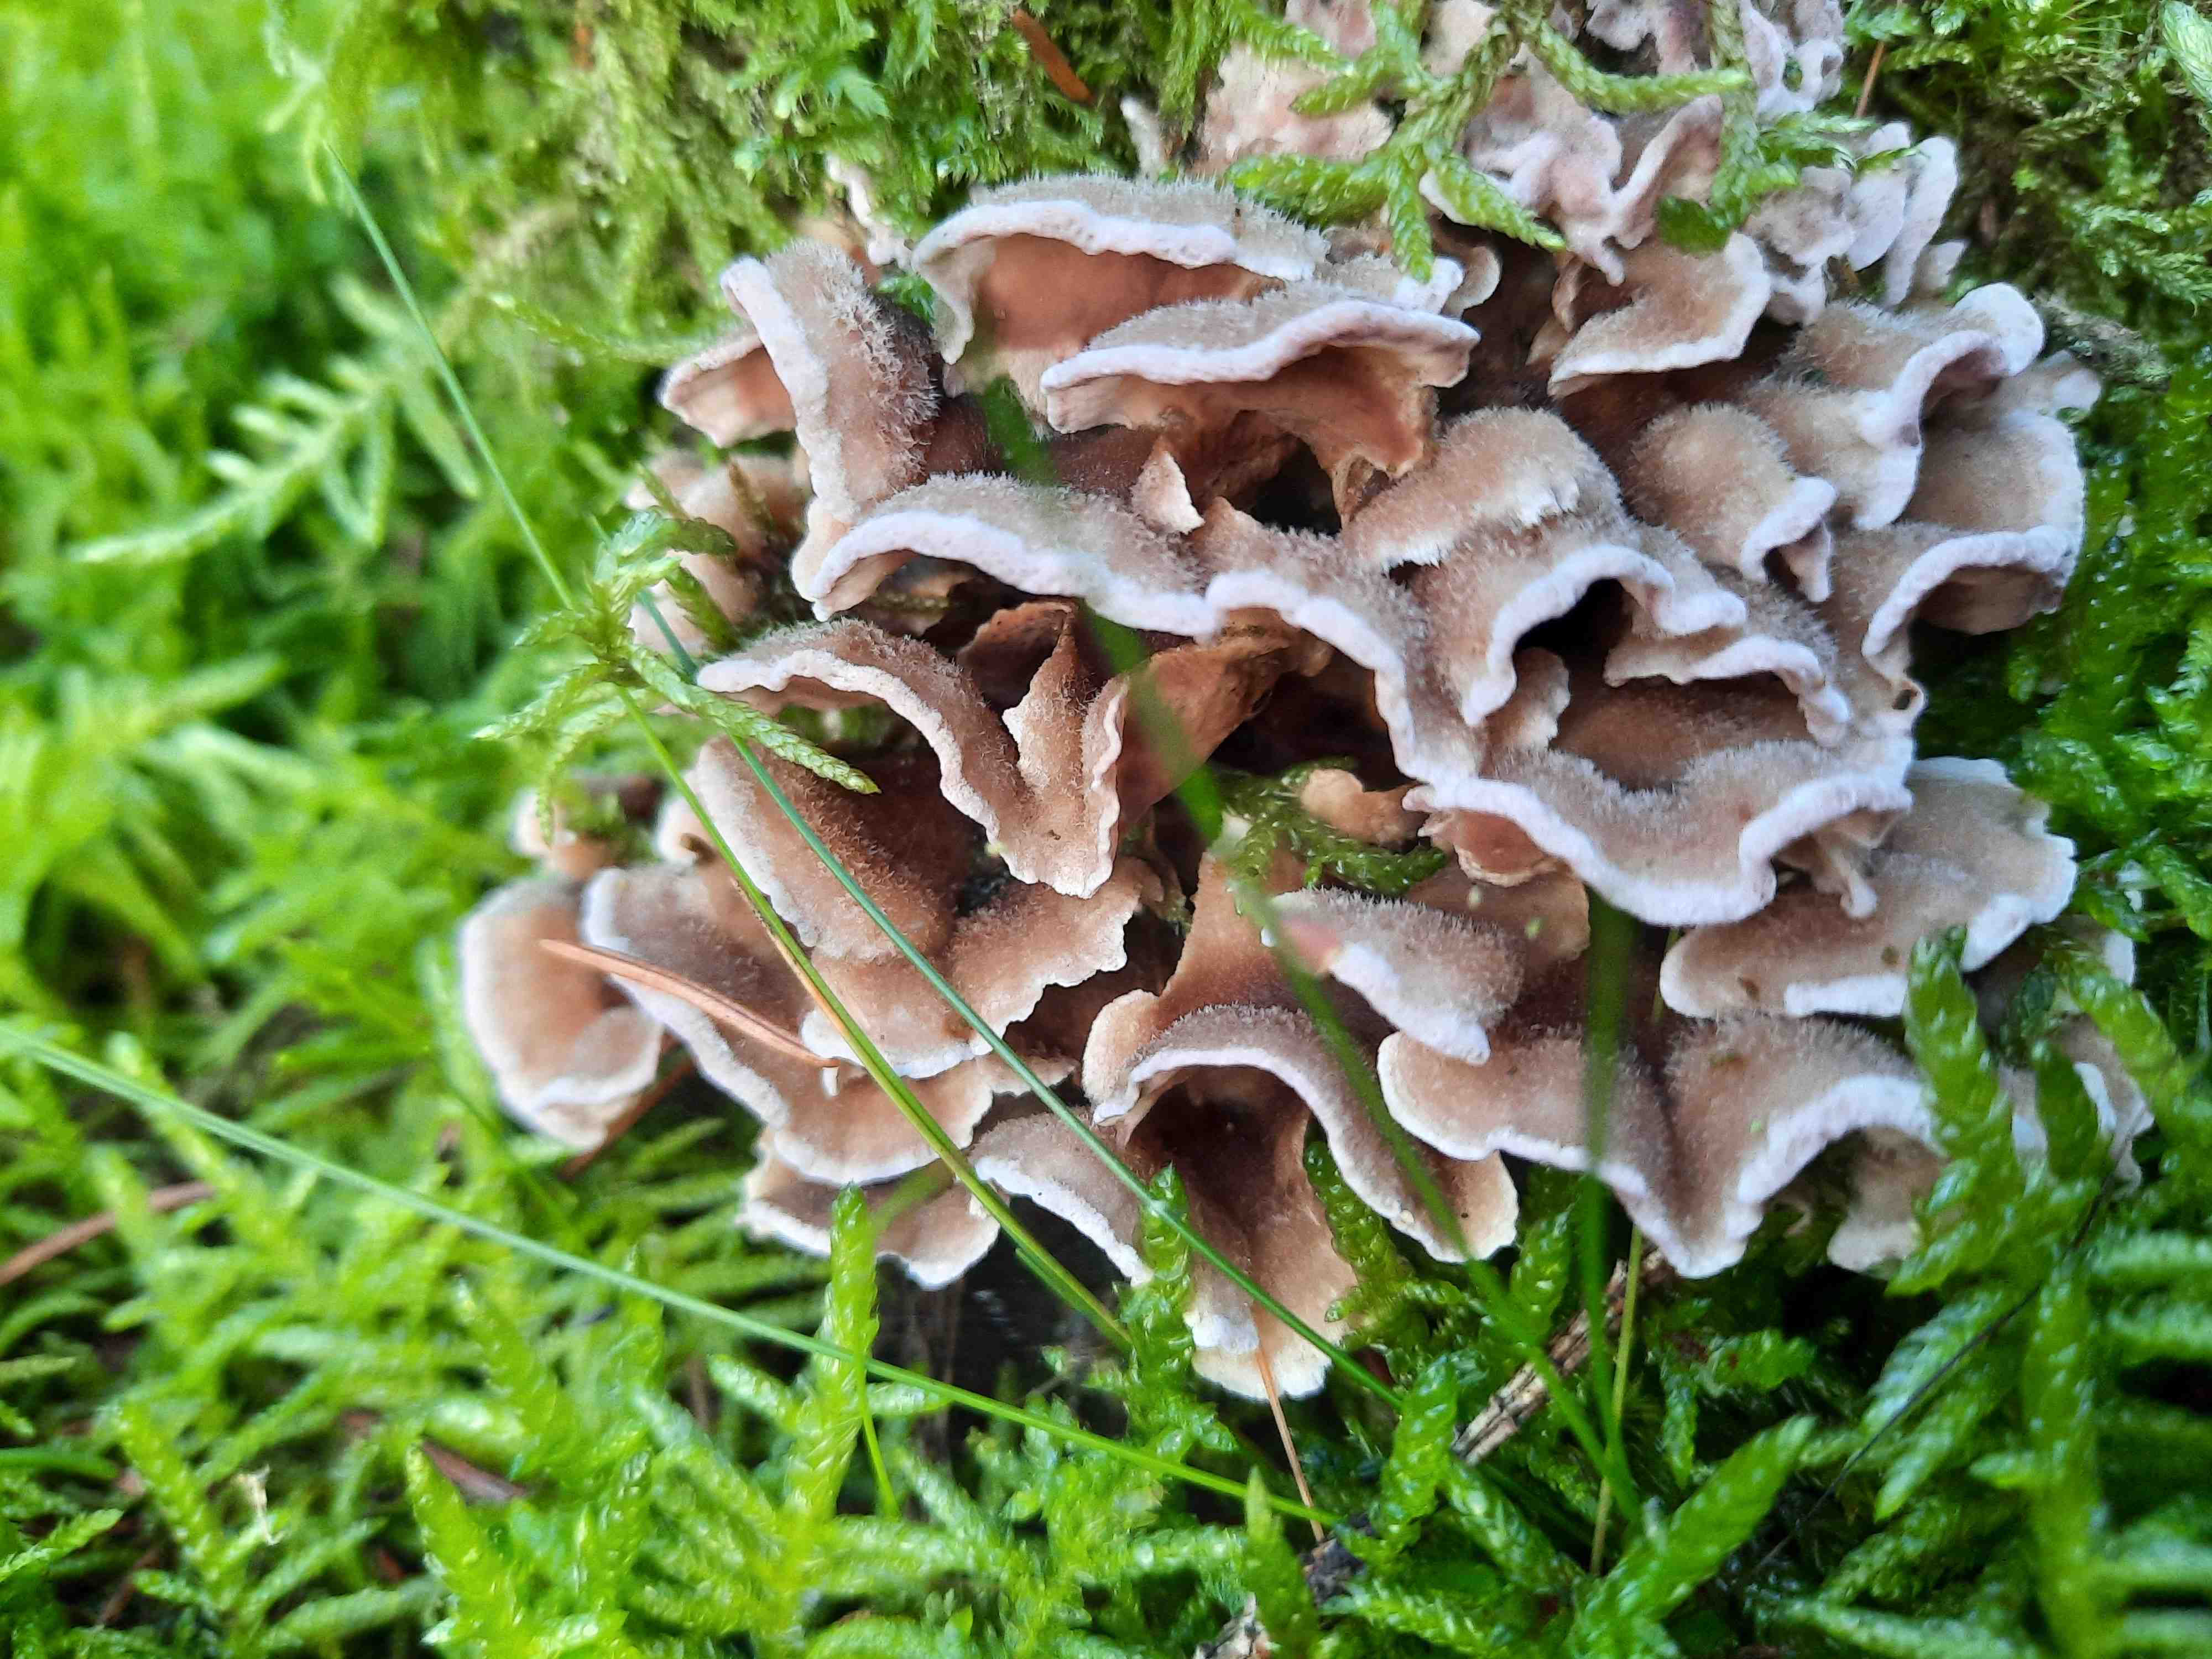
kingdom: Fungi
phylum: Basidiomycota
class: Agaricomycetes
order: Agaricales
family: Cyphellaceae
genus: Chondrostereum
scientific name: Chondrostereum purpureum
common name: purpurlædersvamp
